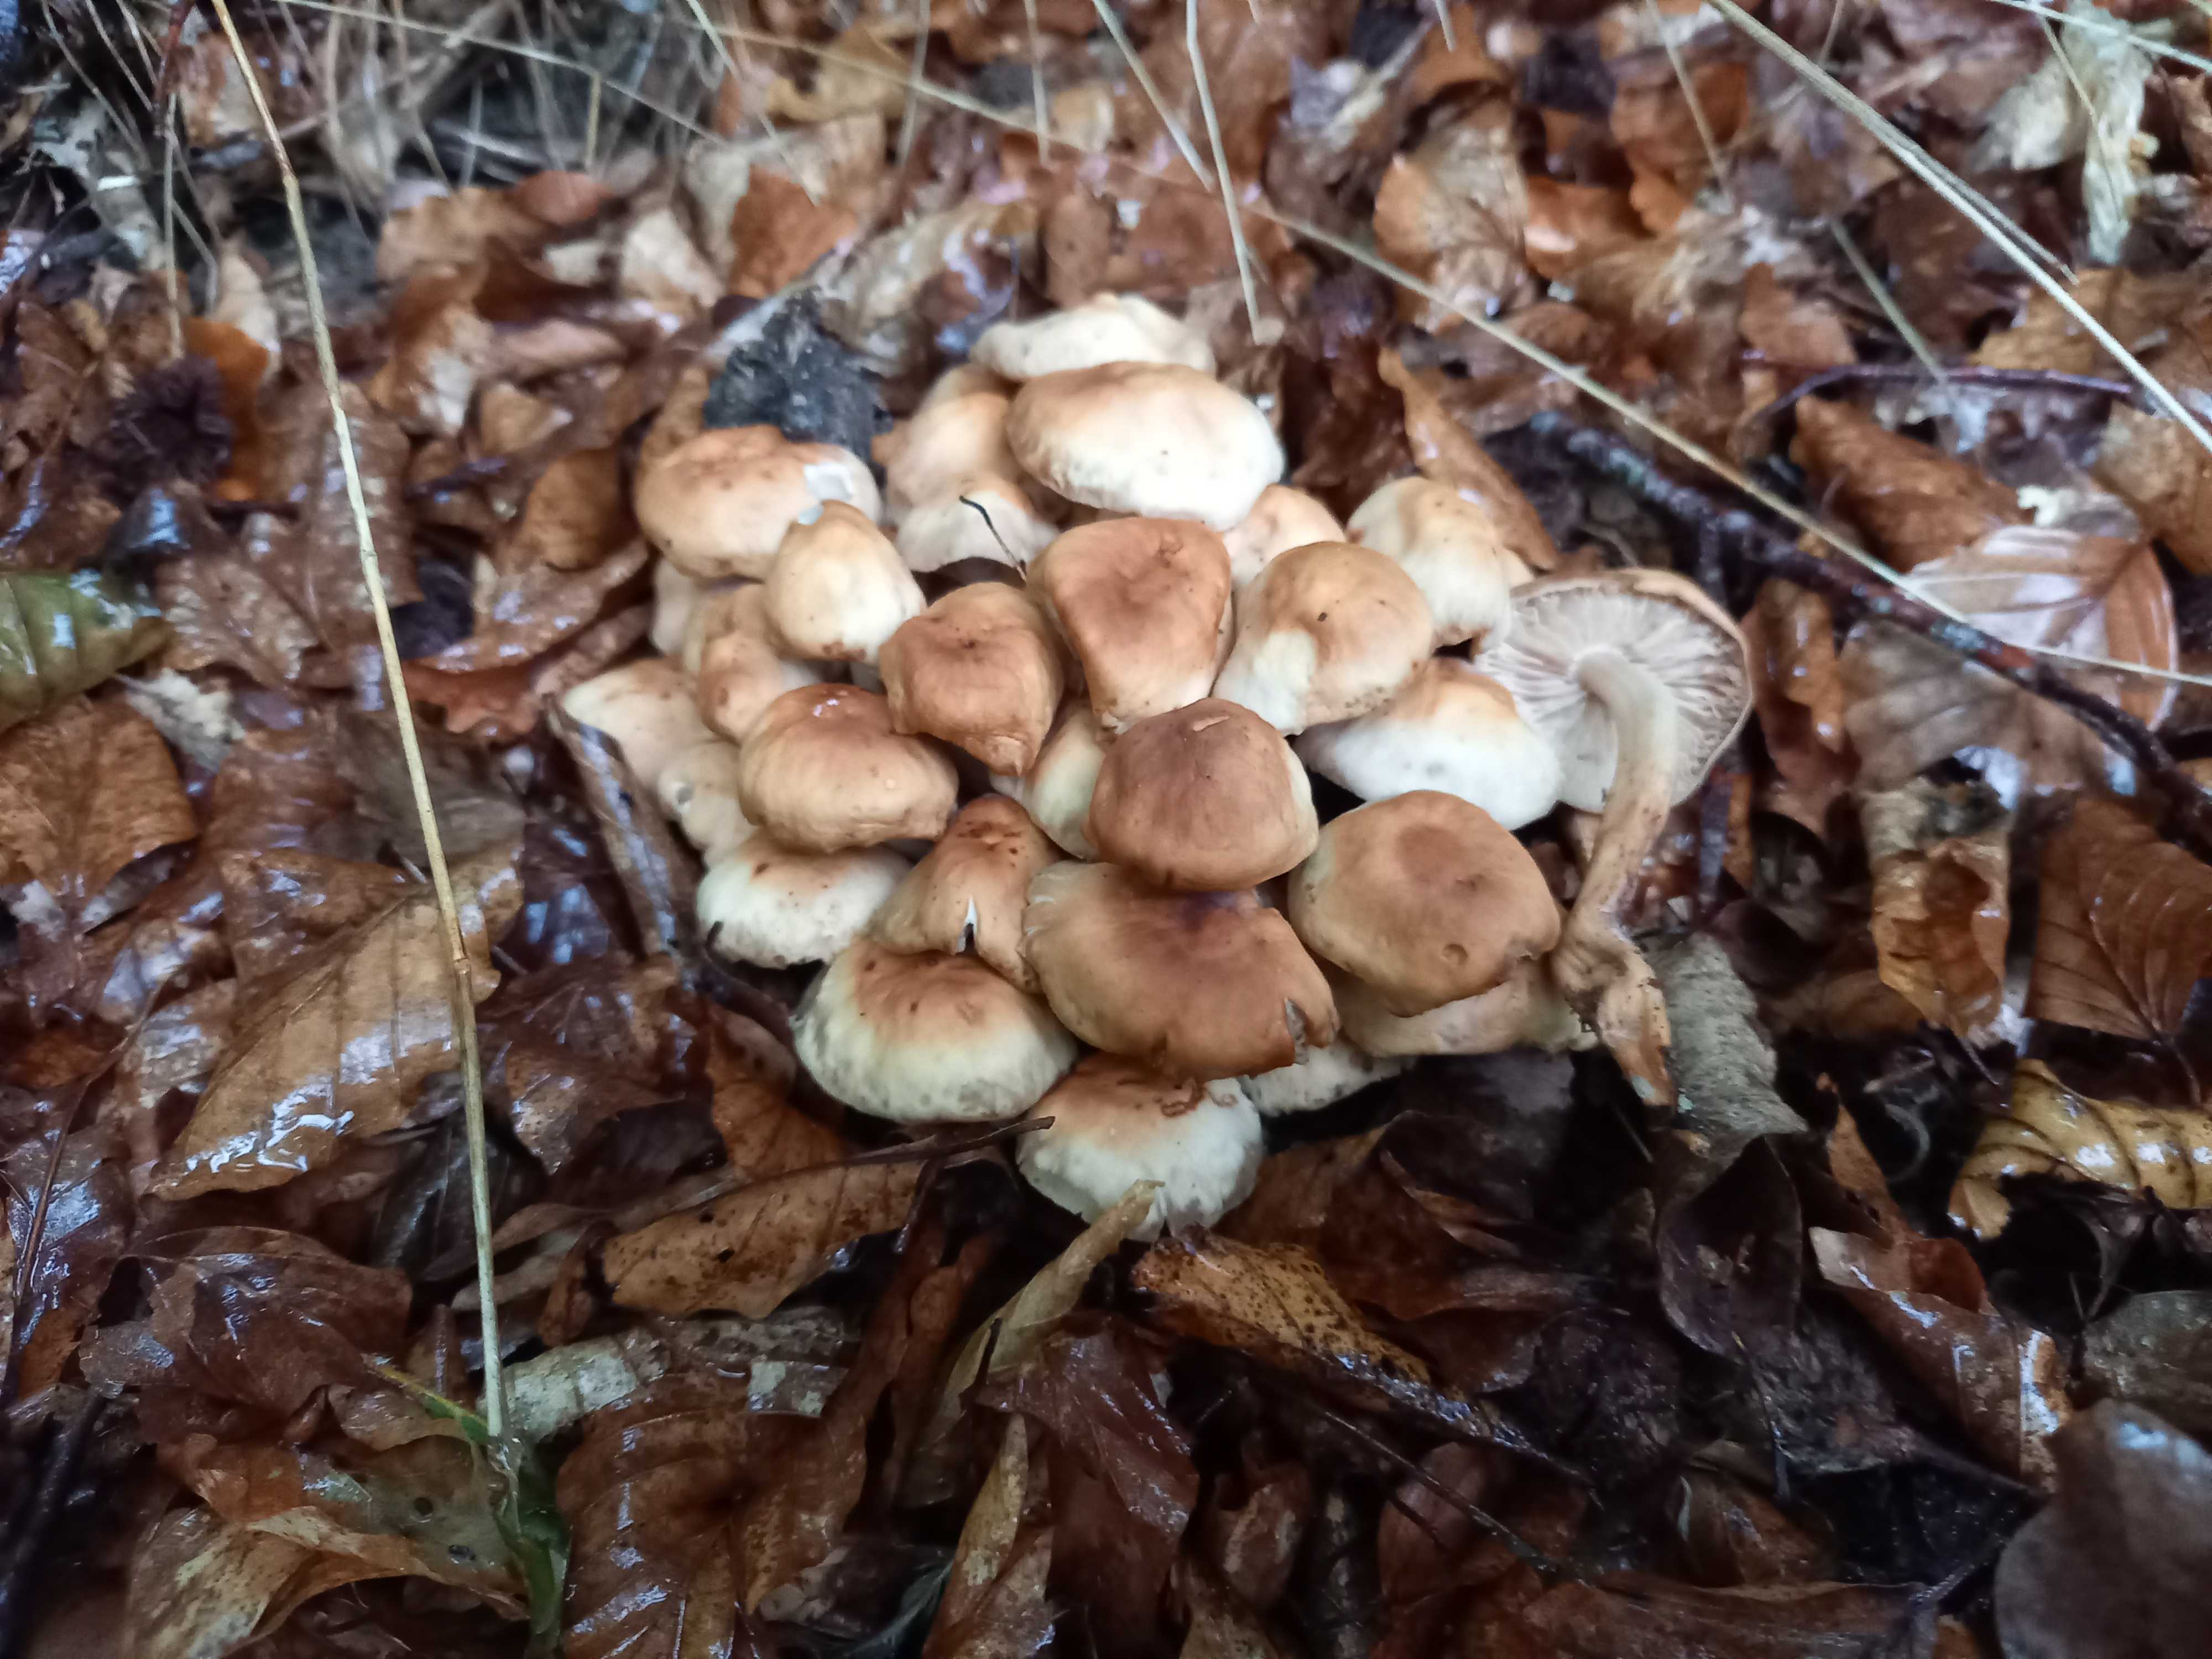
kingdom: Fungi
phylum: Basidiomycota
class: Agaricomycetes
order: Agaricales
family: Omphalotaceae
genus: Gymnopus
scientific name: Gymnopus fusipes
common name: tenstokket fladhat
